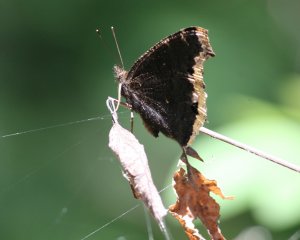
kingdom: Animalia
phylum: Arthropoda
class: Insecta
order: Lepidoptera
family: Nymphalidae
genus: Nymphalis
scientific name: Nymphalis antiopa
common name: Mourning Cloak
